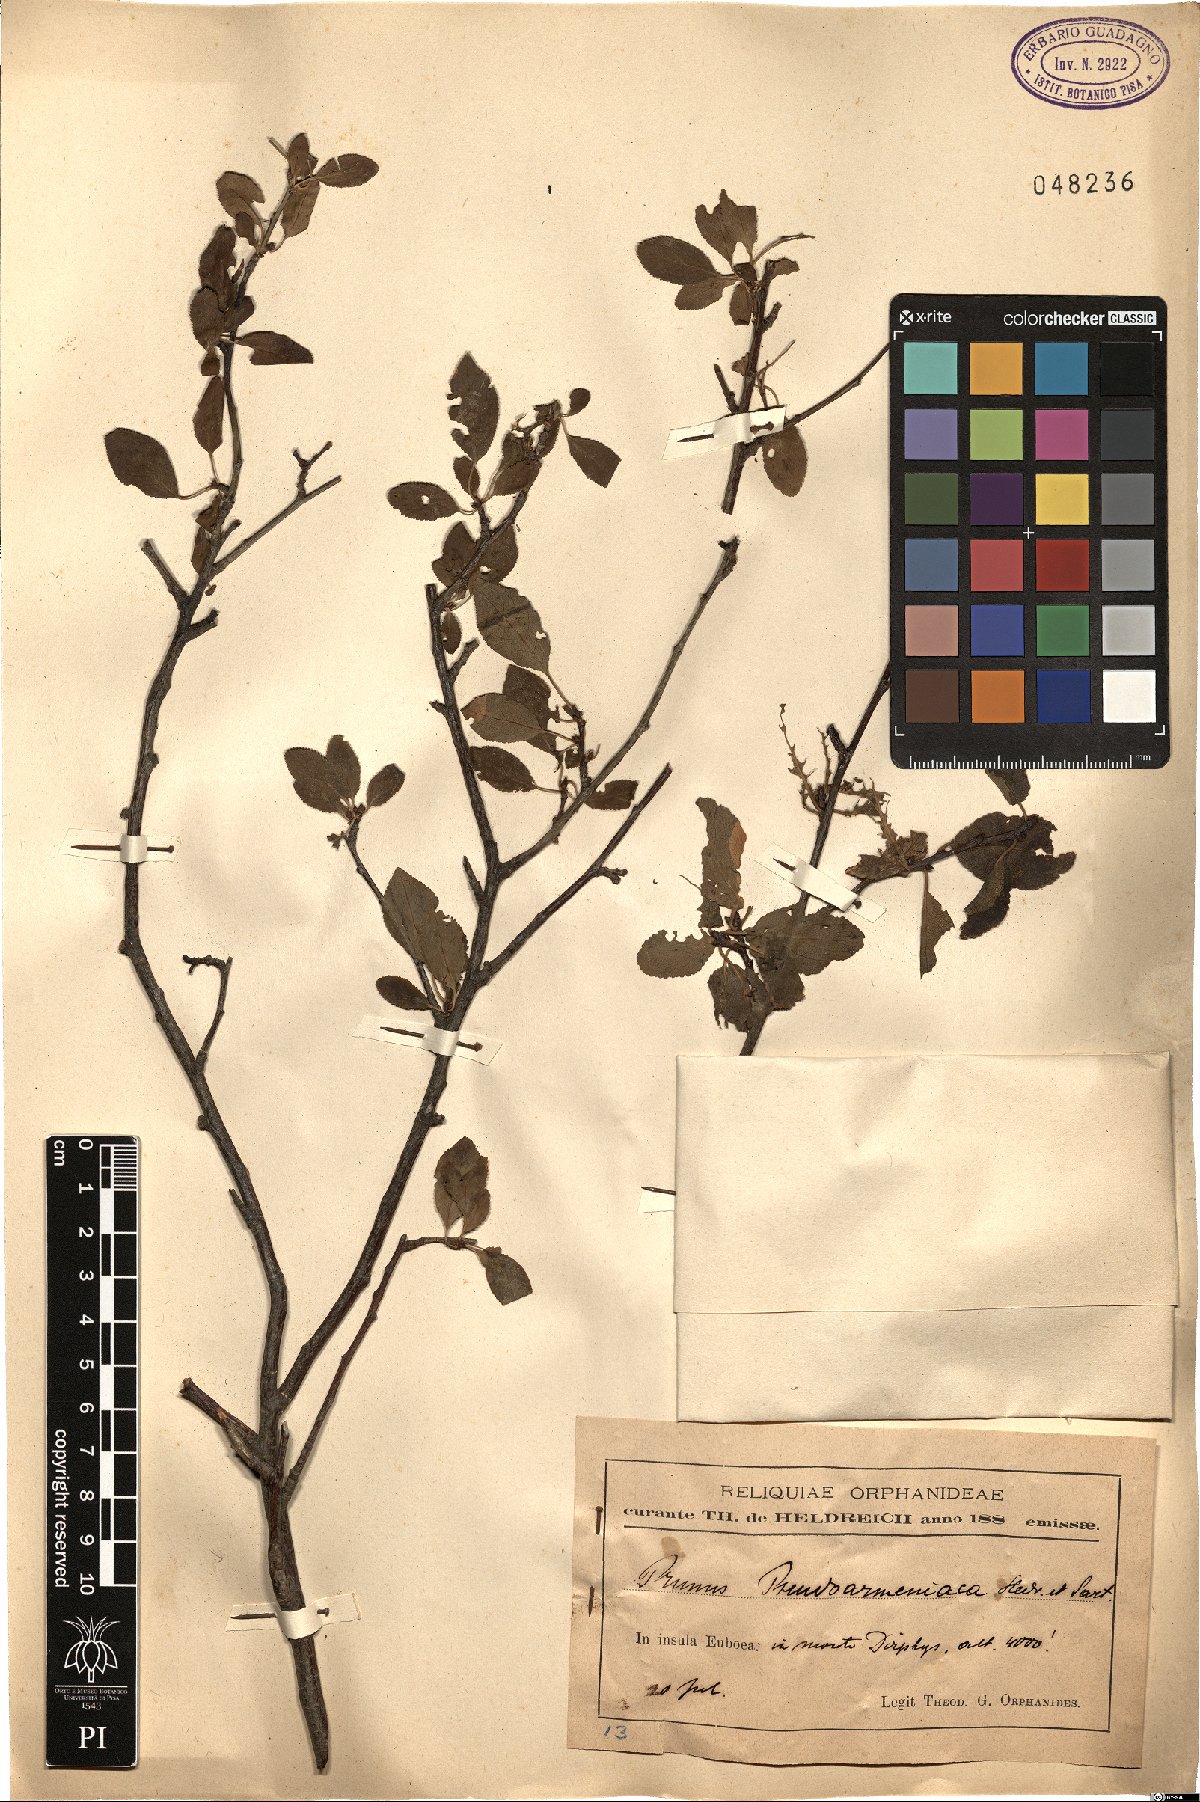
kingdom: Plantae
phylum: Tracheophyta
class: Magnoliopsida
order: Rosales
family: Rosaceae
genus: Prunus
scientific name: Prunus cocomilia
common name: Italian plum
